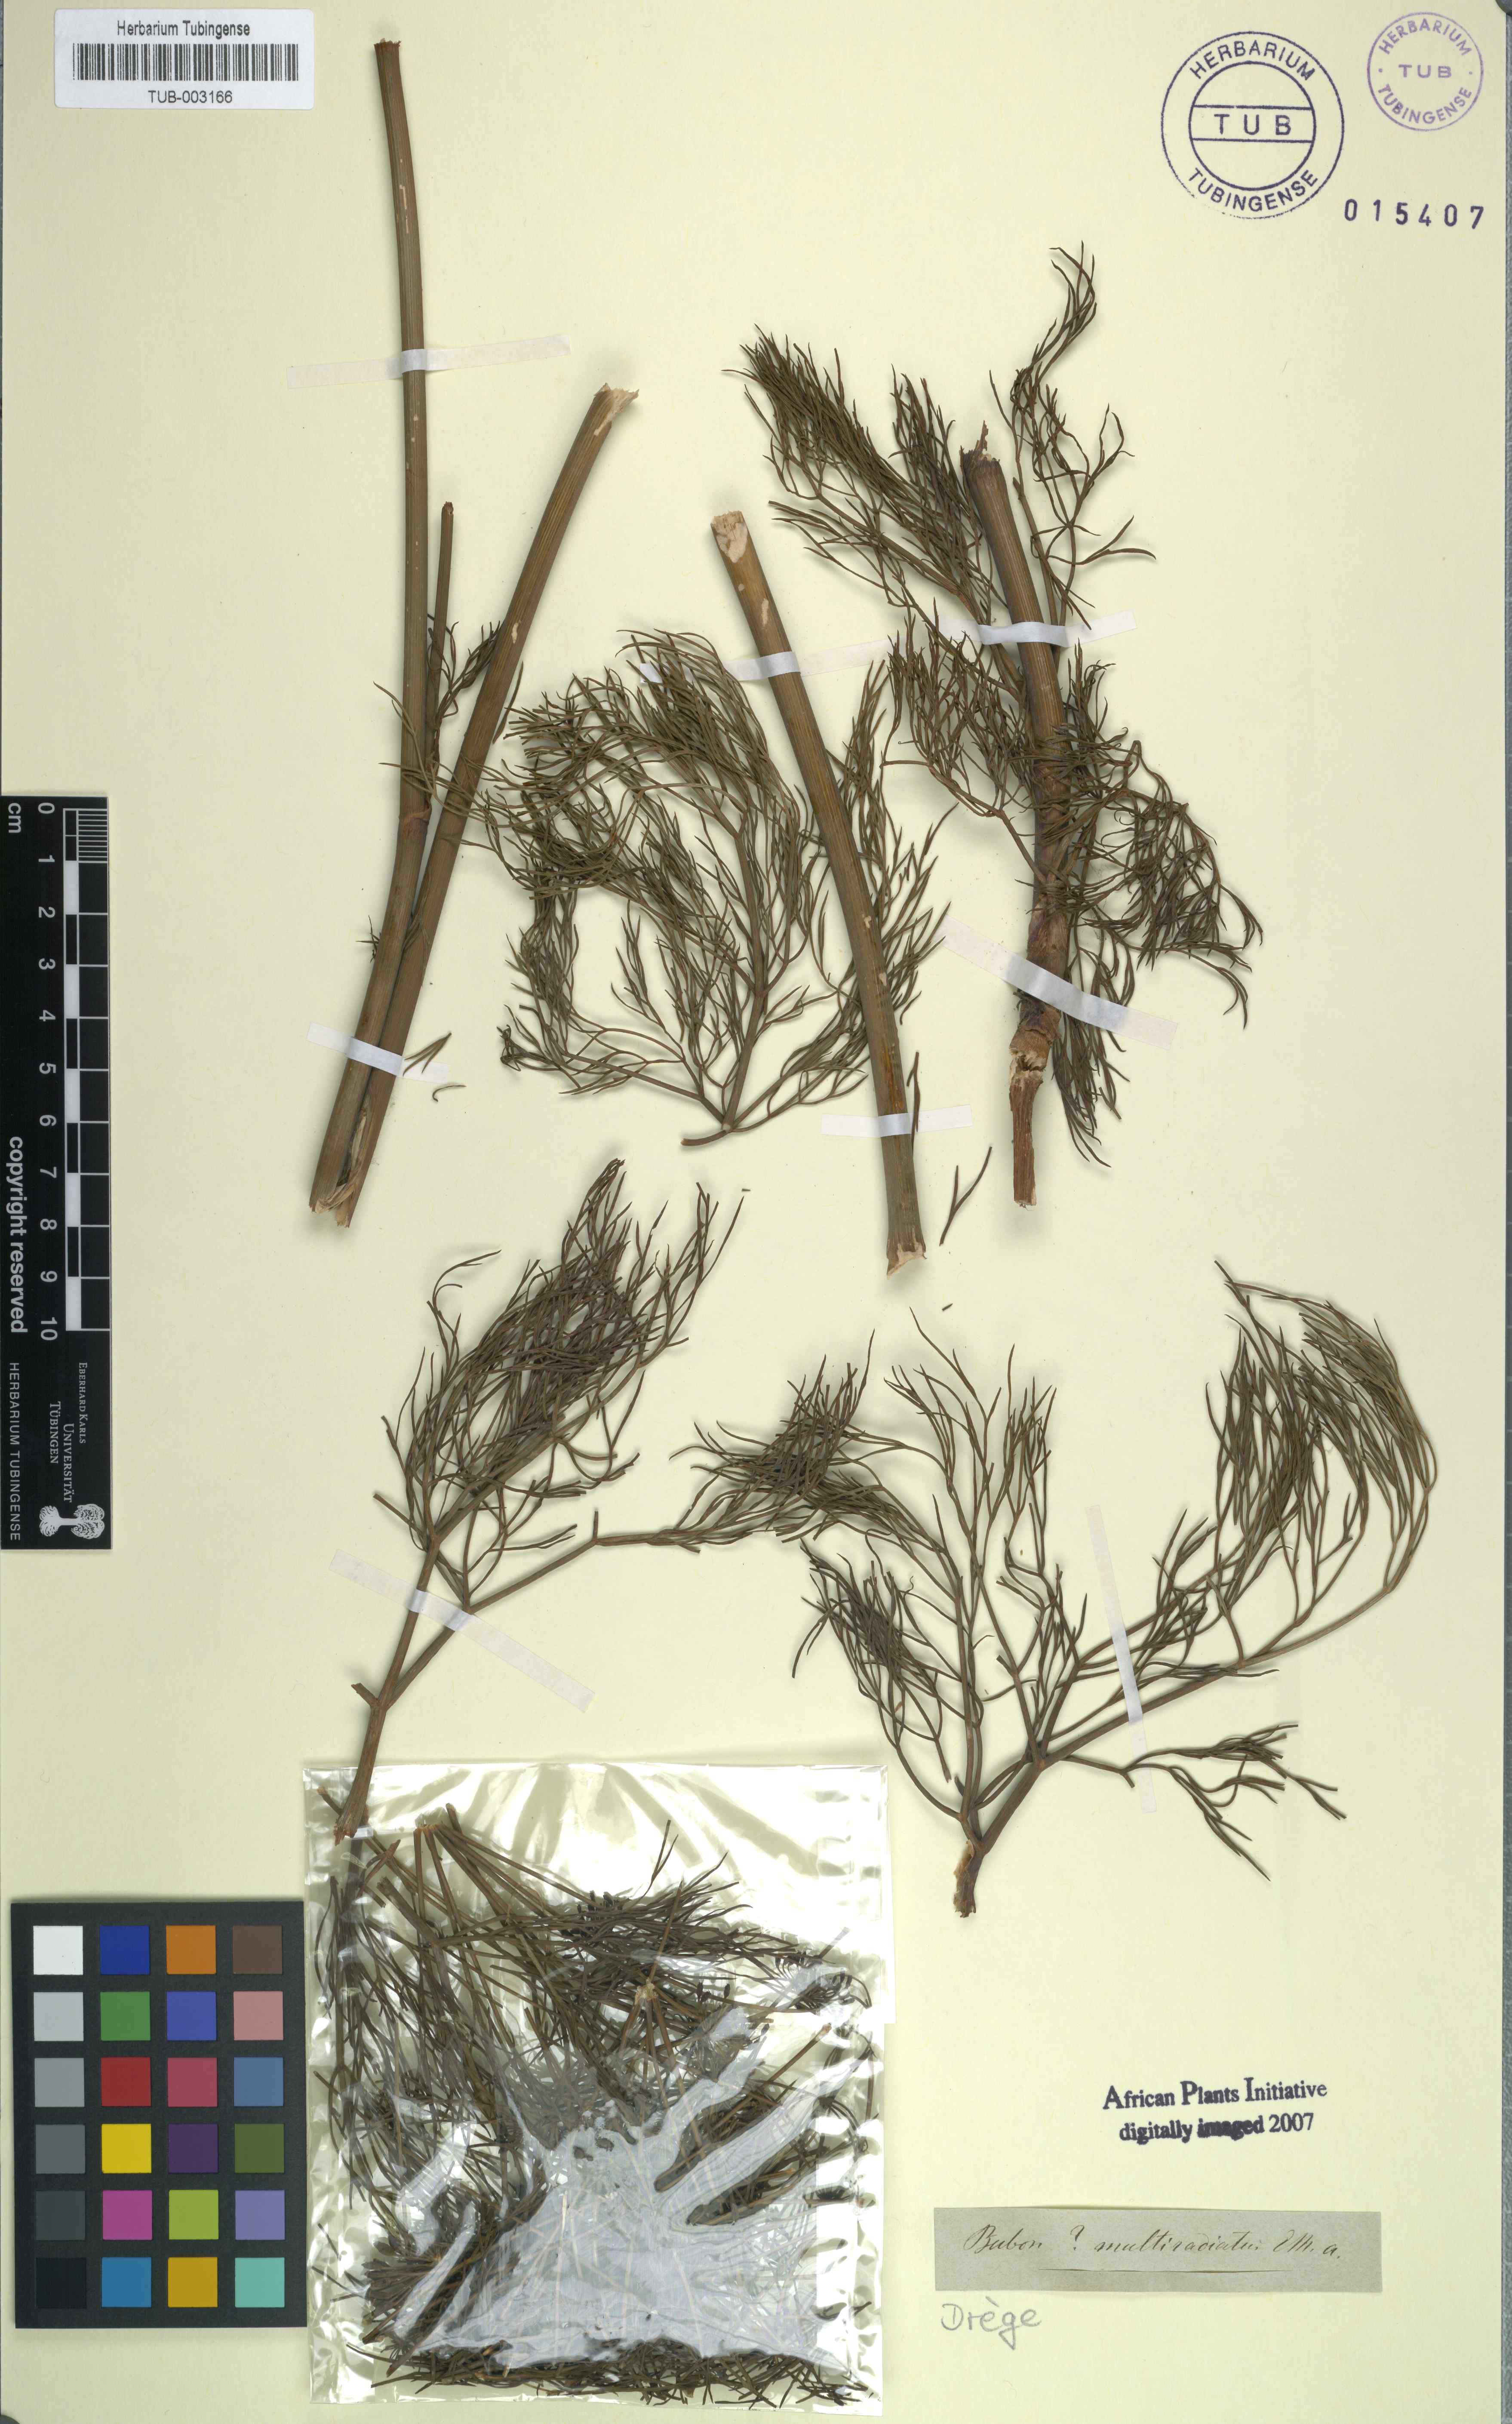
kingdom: Plantae
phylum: Tracheophyta
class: Magnoliopsida
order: Apiales
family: Apiaceae
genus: Peucedanum
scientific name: Peucedanum
